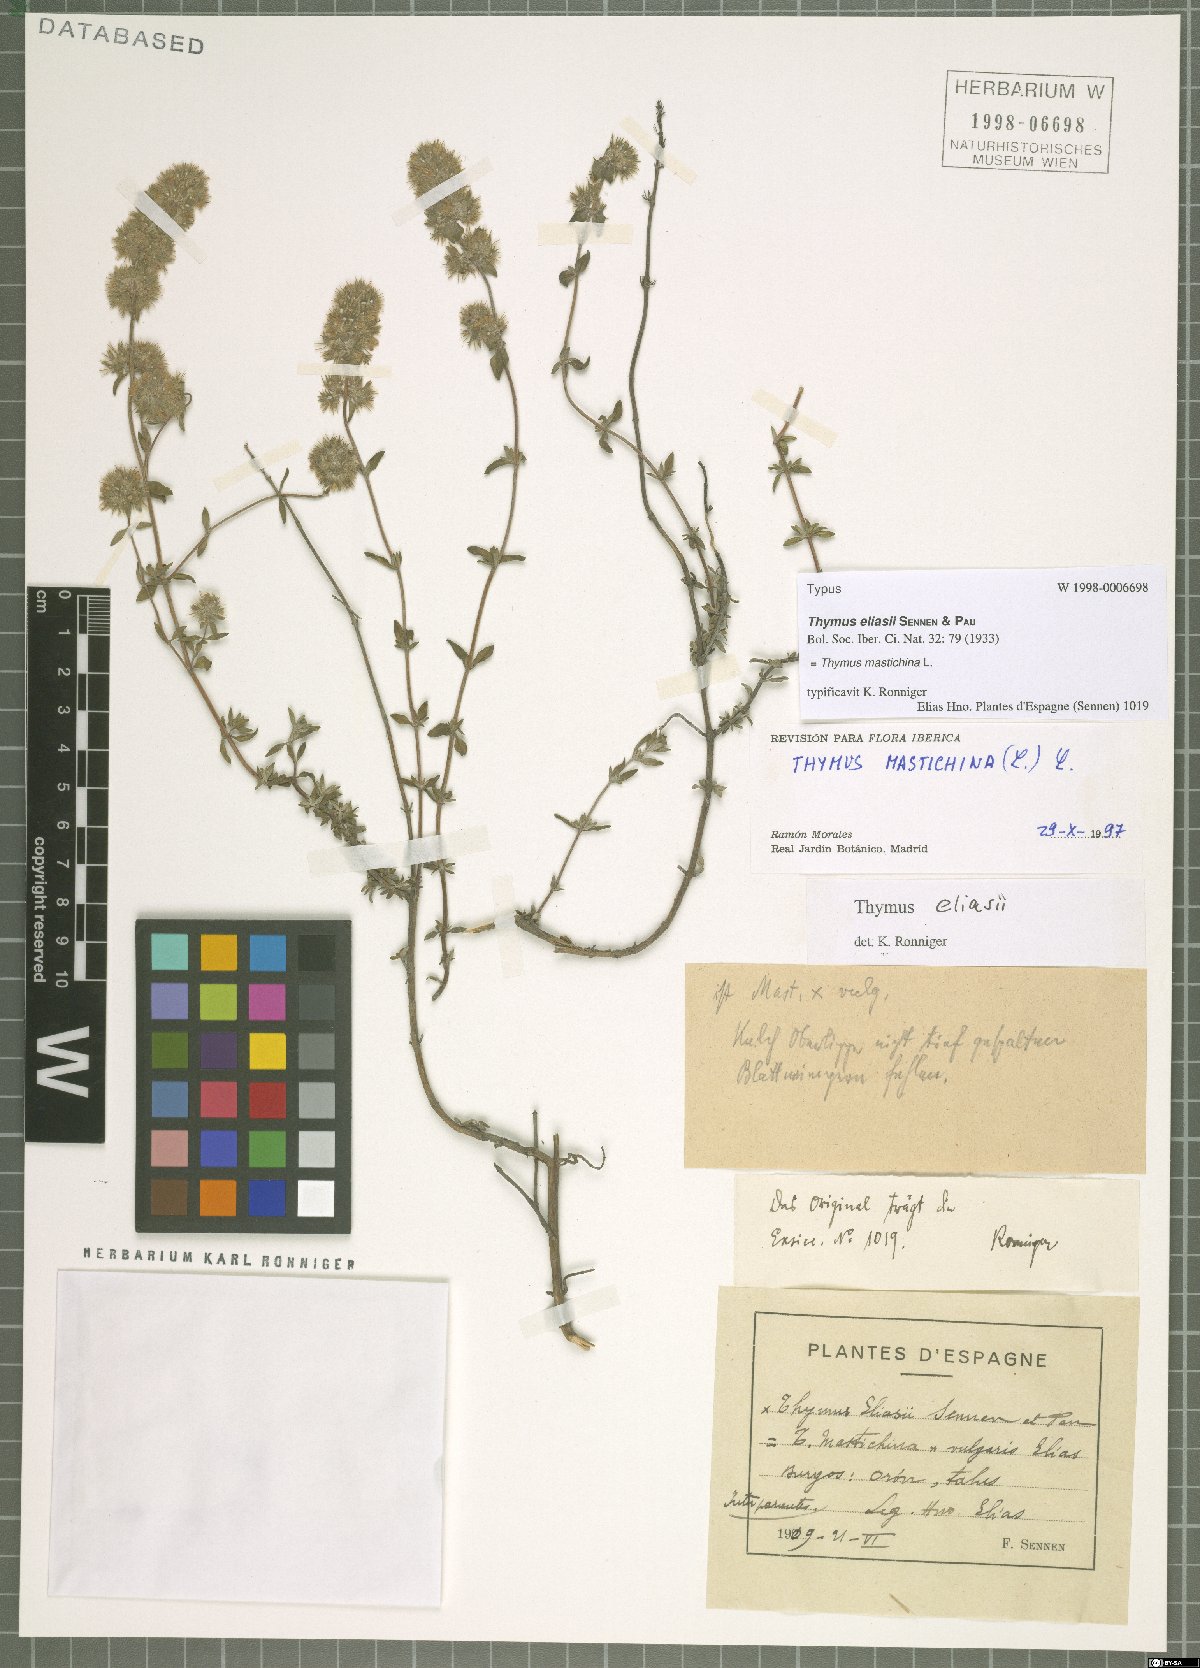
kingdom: Plantae
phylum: Tracheophyta
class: Magnoliopsida
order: Lamiales
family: Lamiaceae
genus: Thymus
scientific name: Thymus mastichina
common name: Mastic thyme
